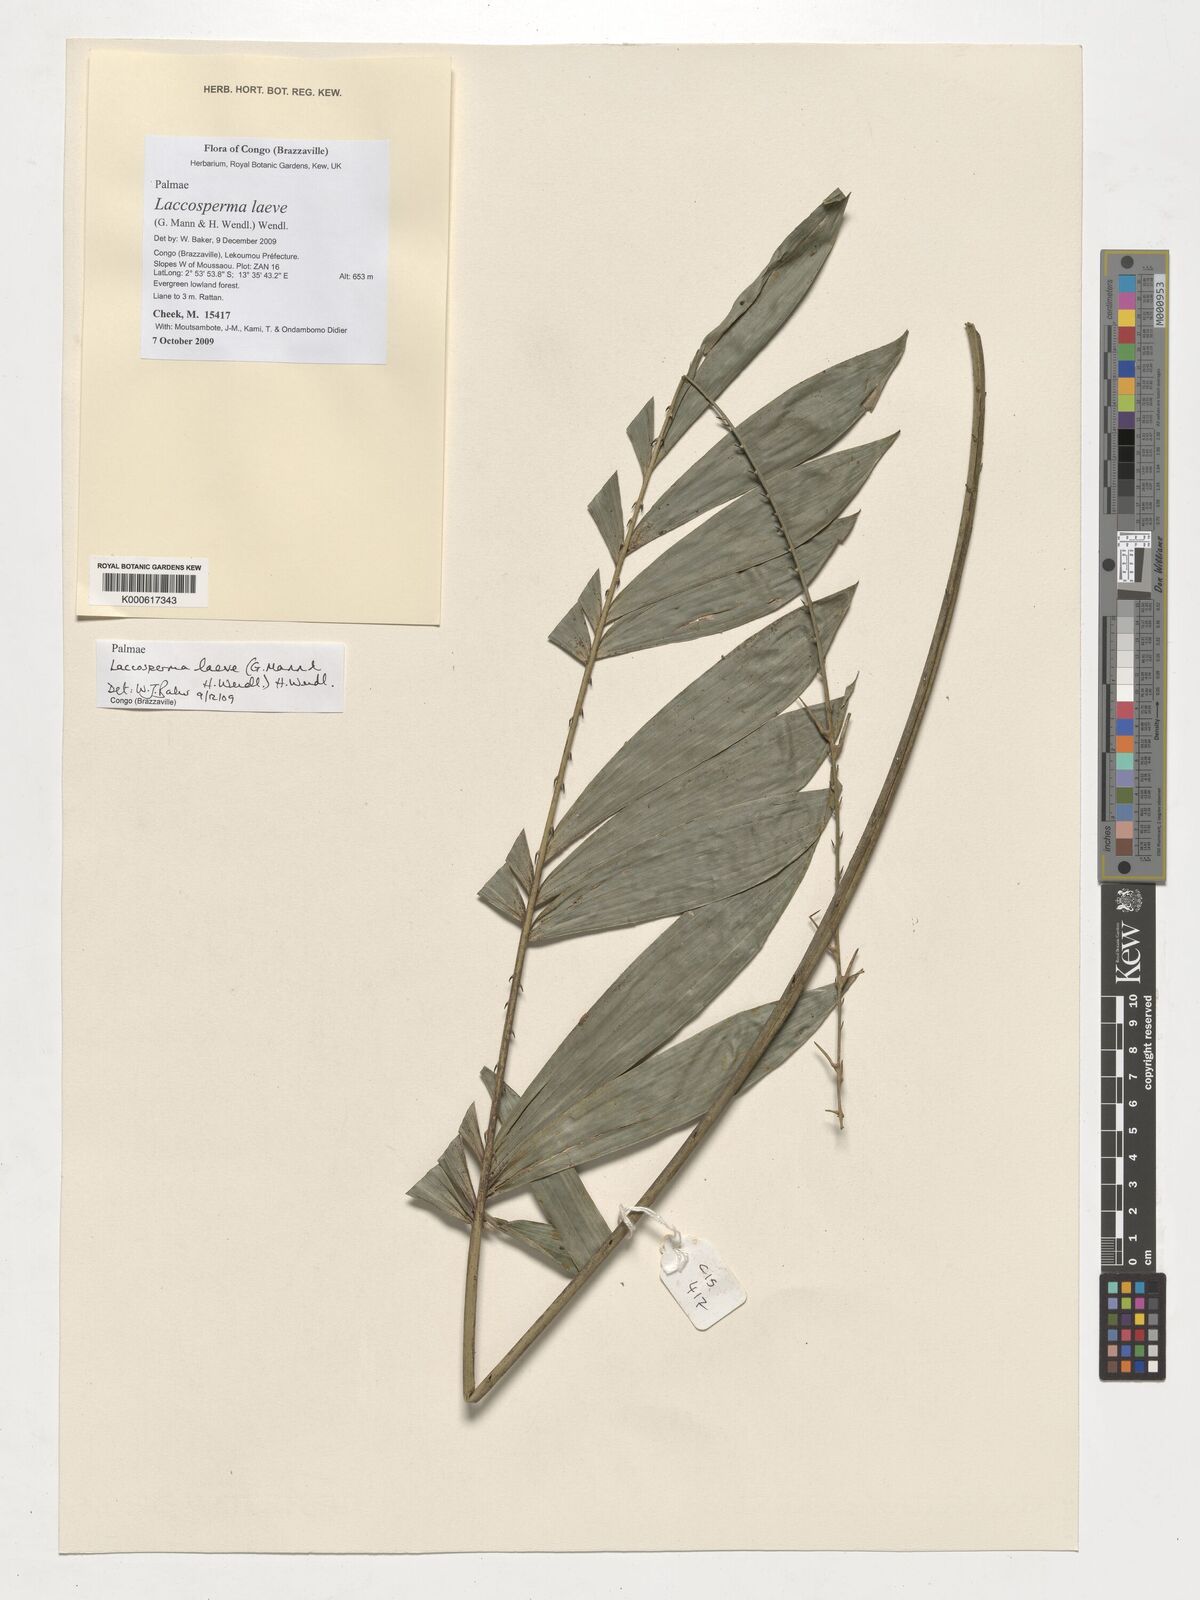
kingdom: Plantae
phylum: Tracheophyta
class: Liliopsida
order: Arecales
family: Arecaceae
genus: Laccosperma
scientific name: Laccosperma laeve
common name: Rattan
